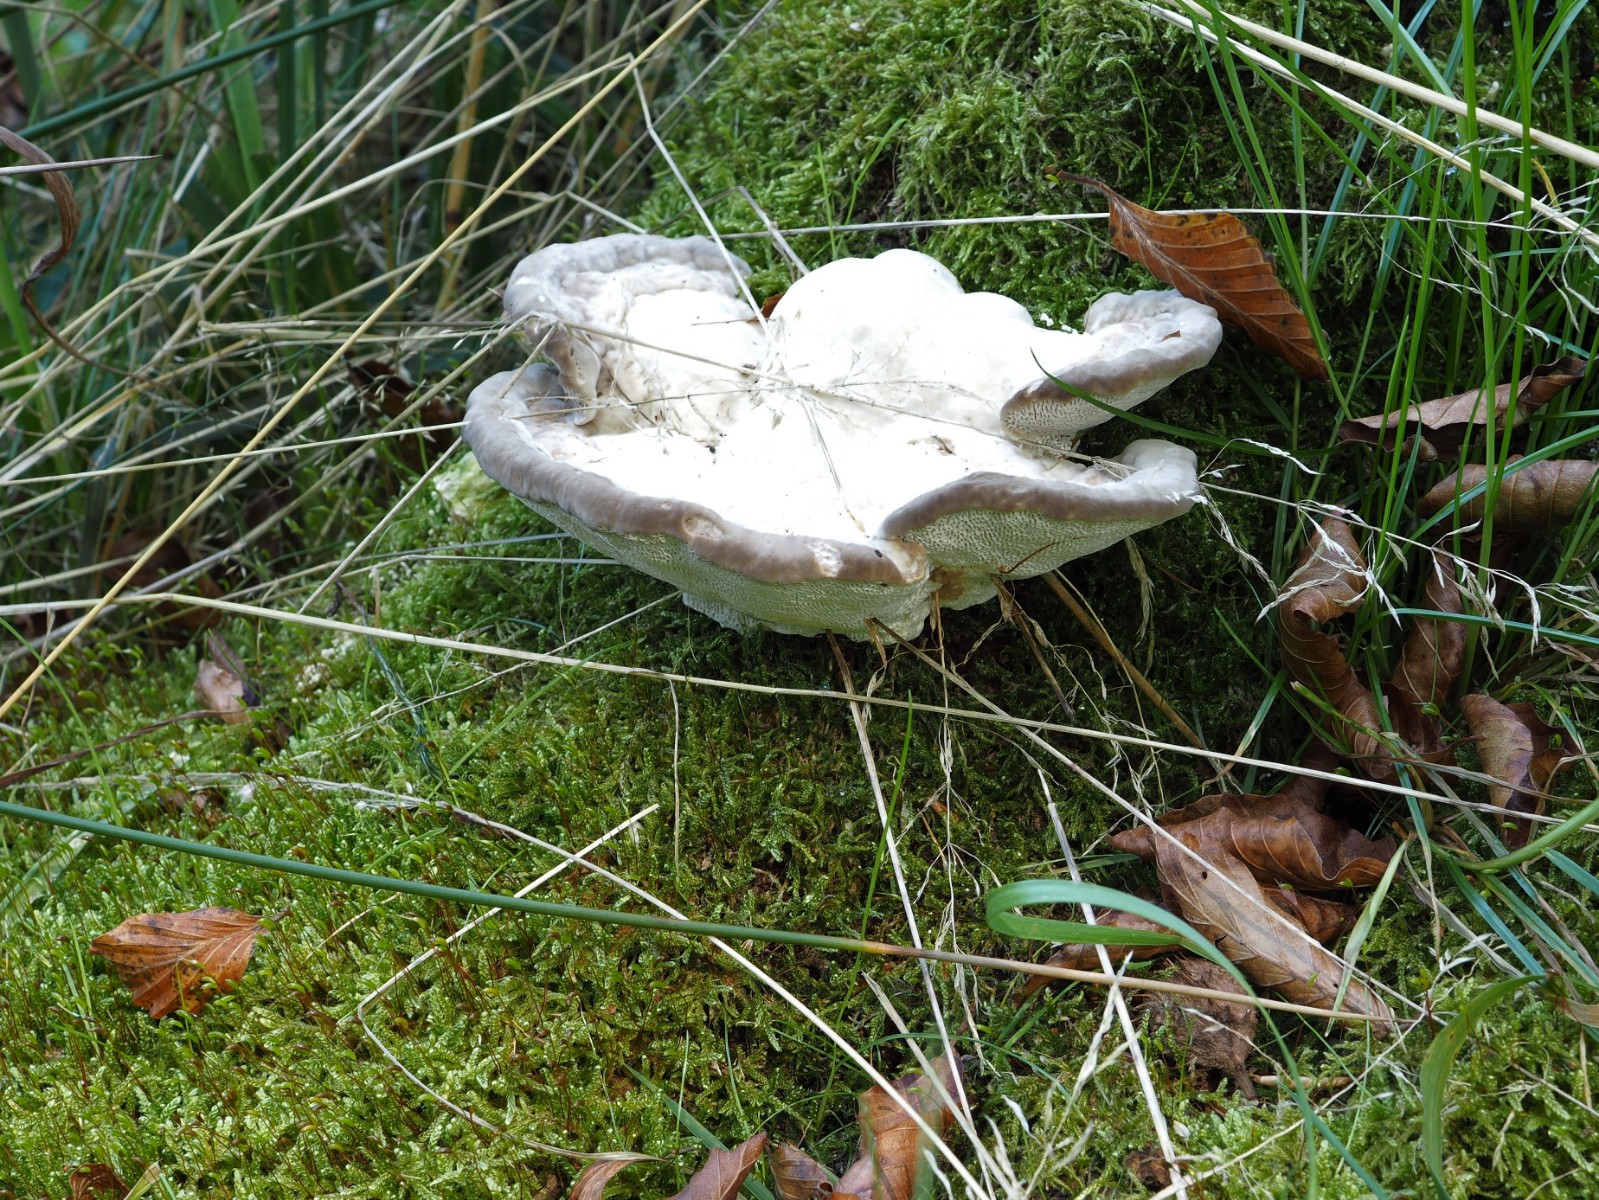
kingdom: Fungi
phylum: Basidiomycota
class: Agaricomycetes
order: Polyporales
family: Polyporaceae
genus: Trametes
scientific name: Trametes gibbosa
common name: puklet læderporesvamp
